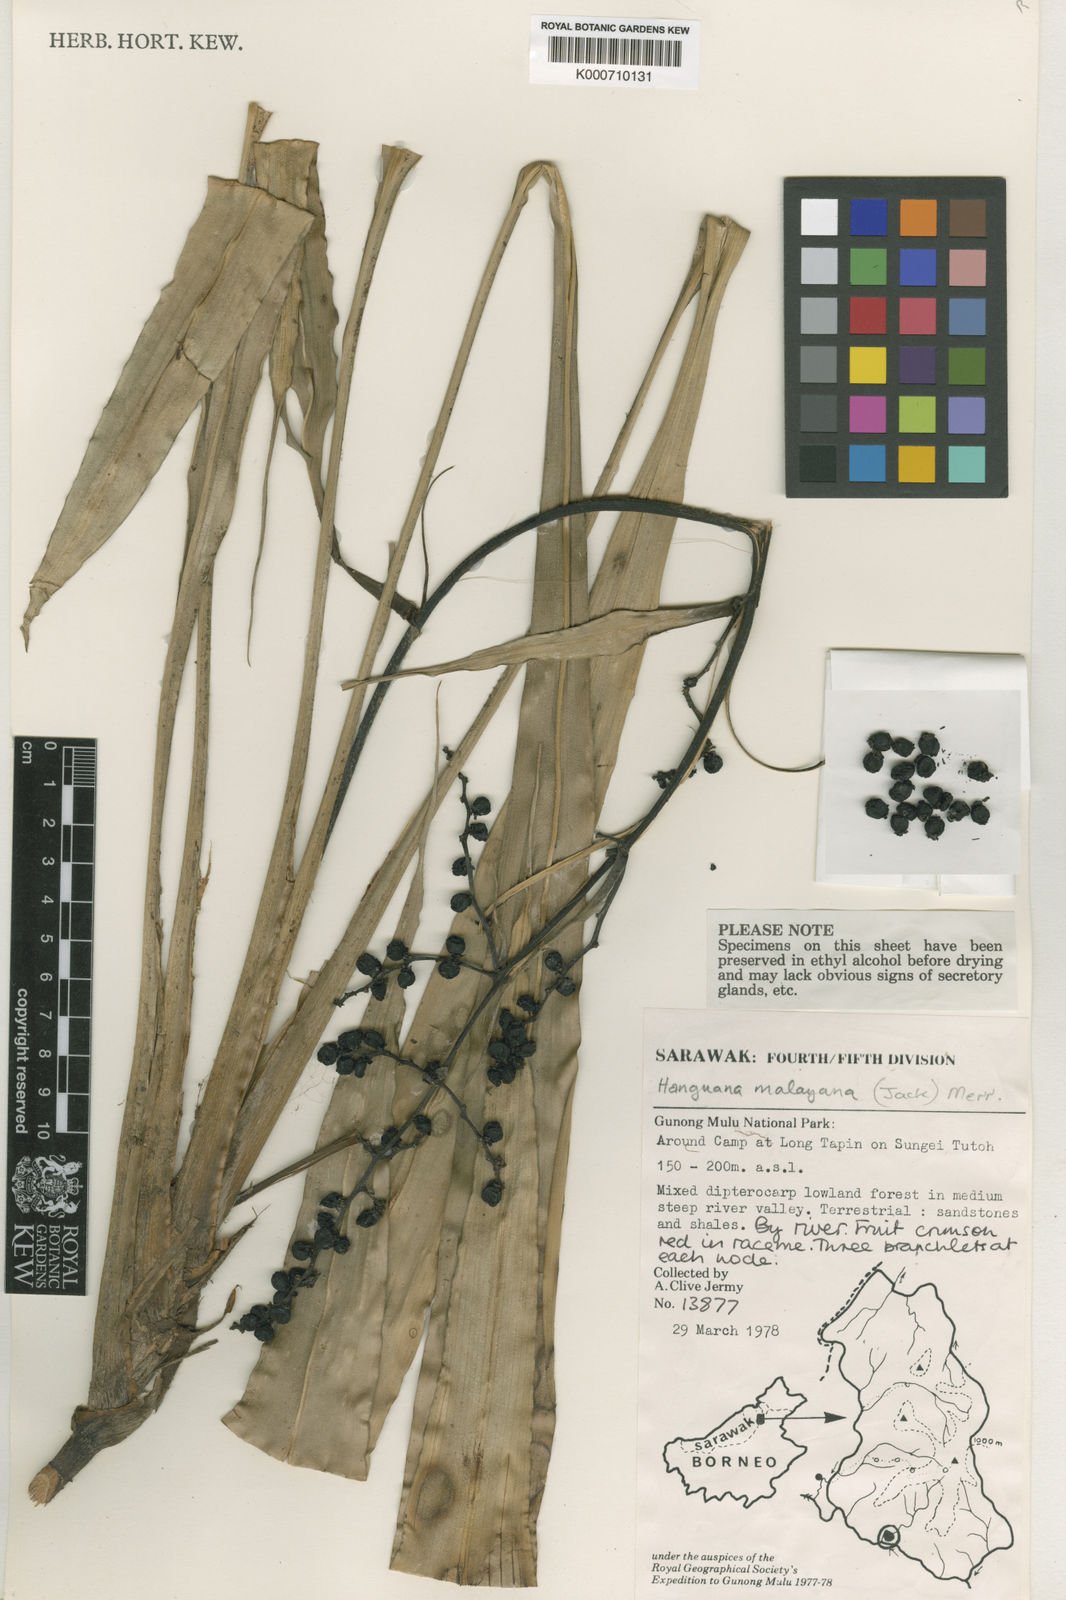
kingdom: Plantae
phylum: Tracheophyta
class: Liliopsida
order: Commelinales
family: Hanguanaceae
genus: Hanguana
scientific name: Hanguana malayana
